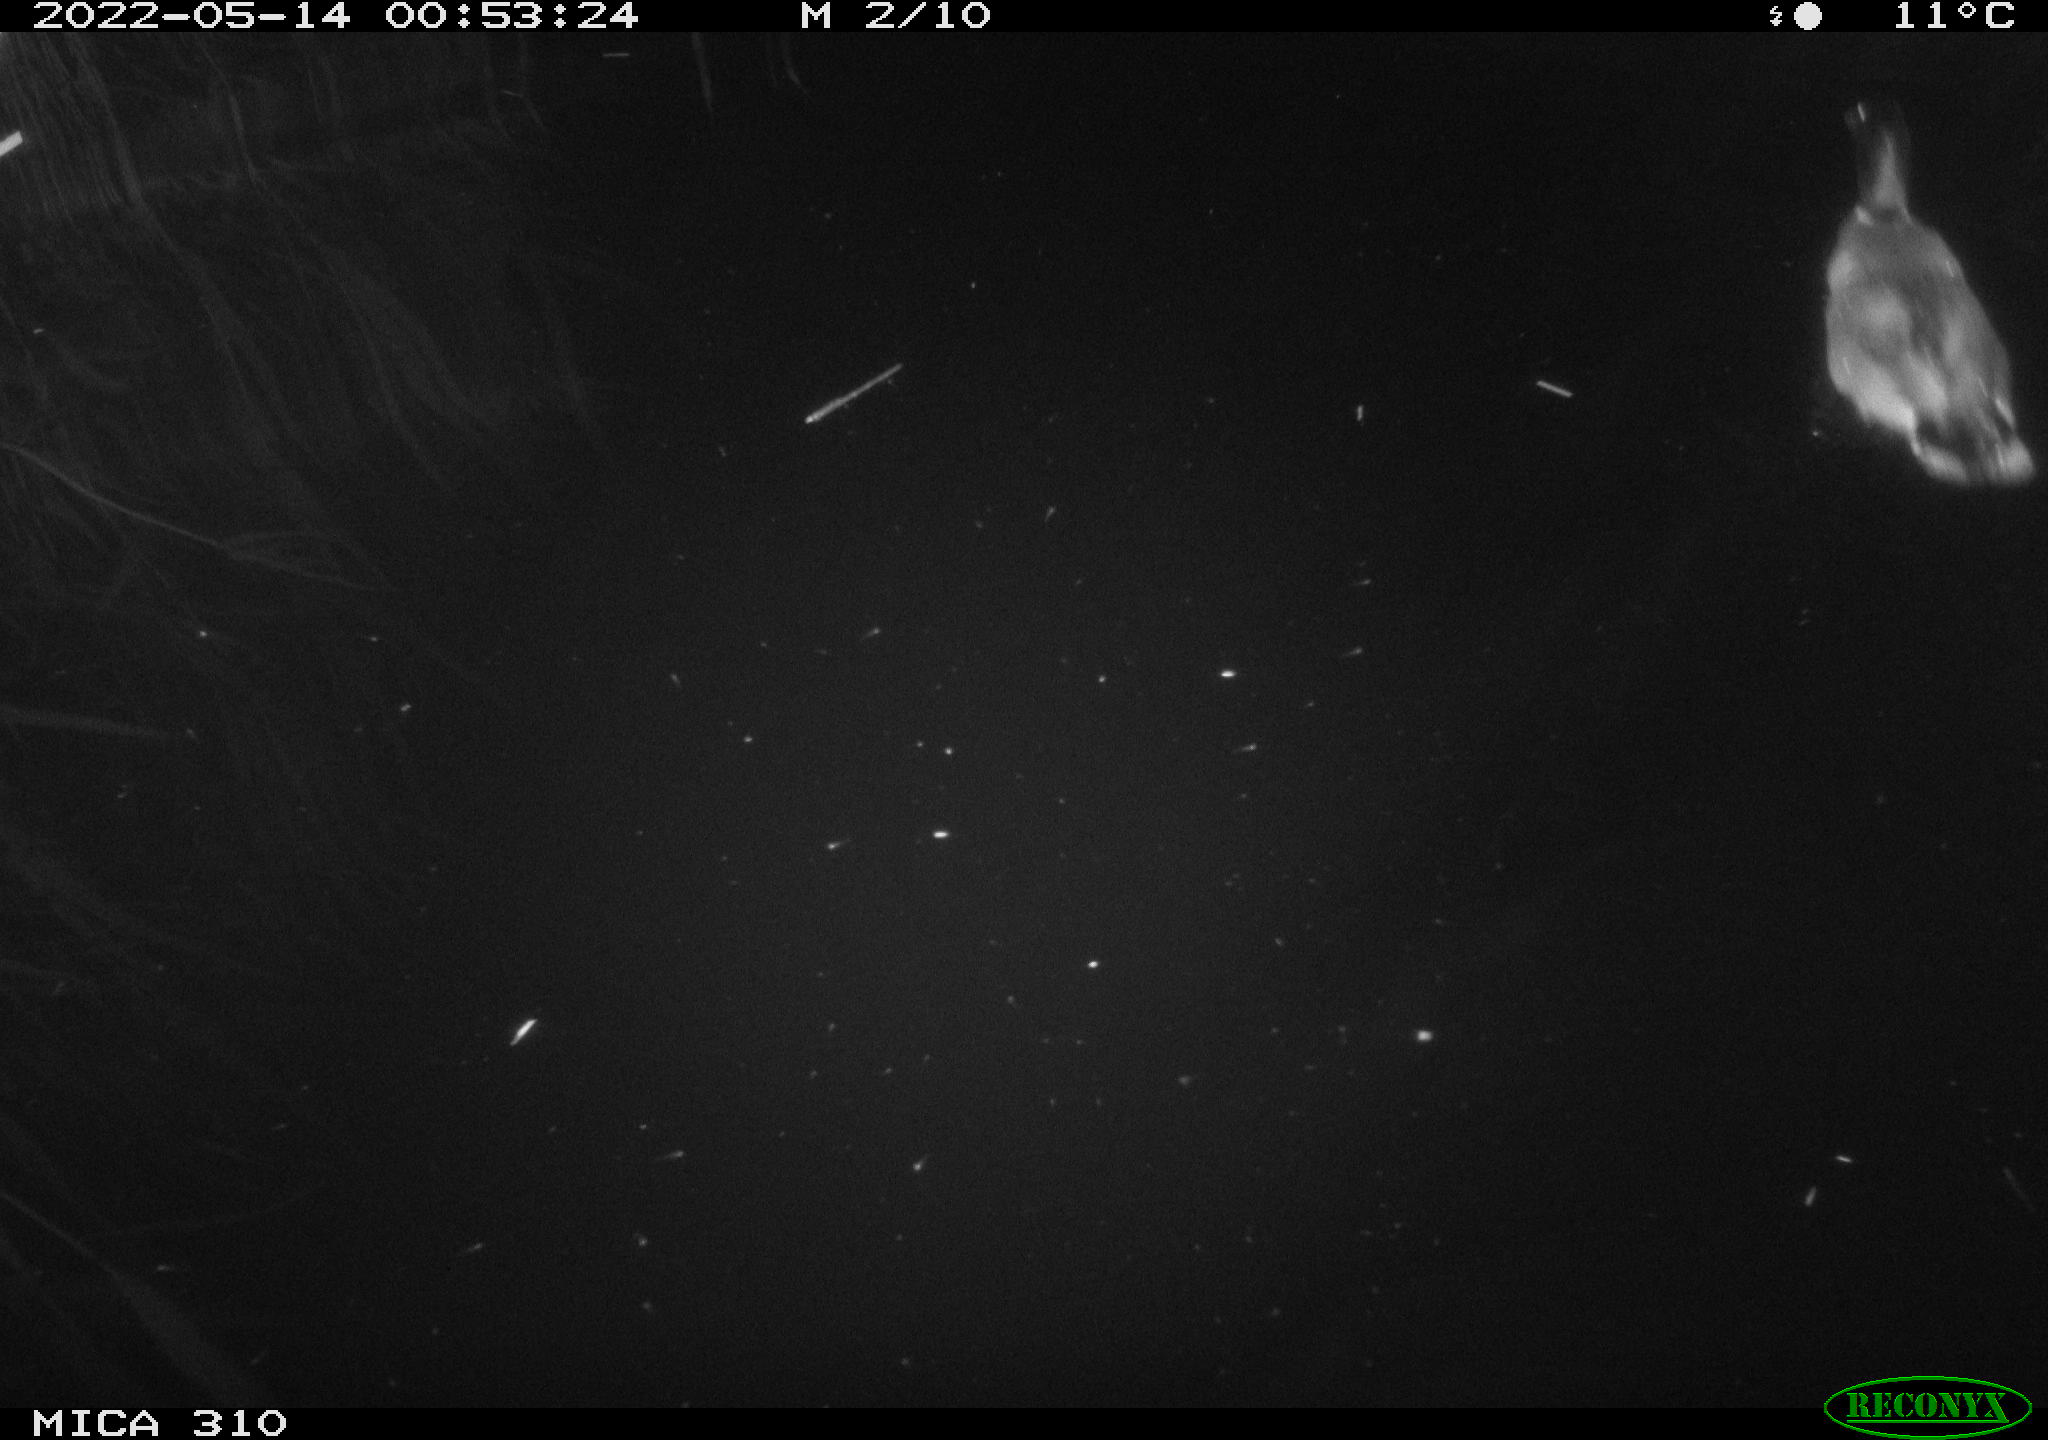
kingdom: Animalia
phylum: Chordata
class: Aves
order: Anseriformes
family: Anatidae
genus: Anas
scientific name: Anas platyrhynchos
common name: Mallard
